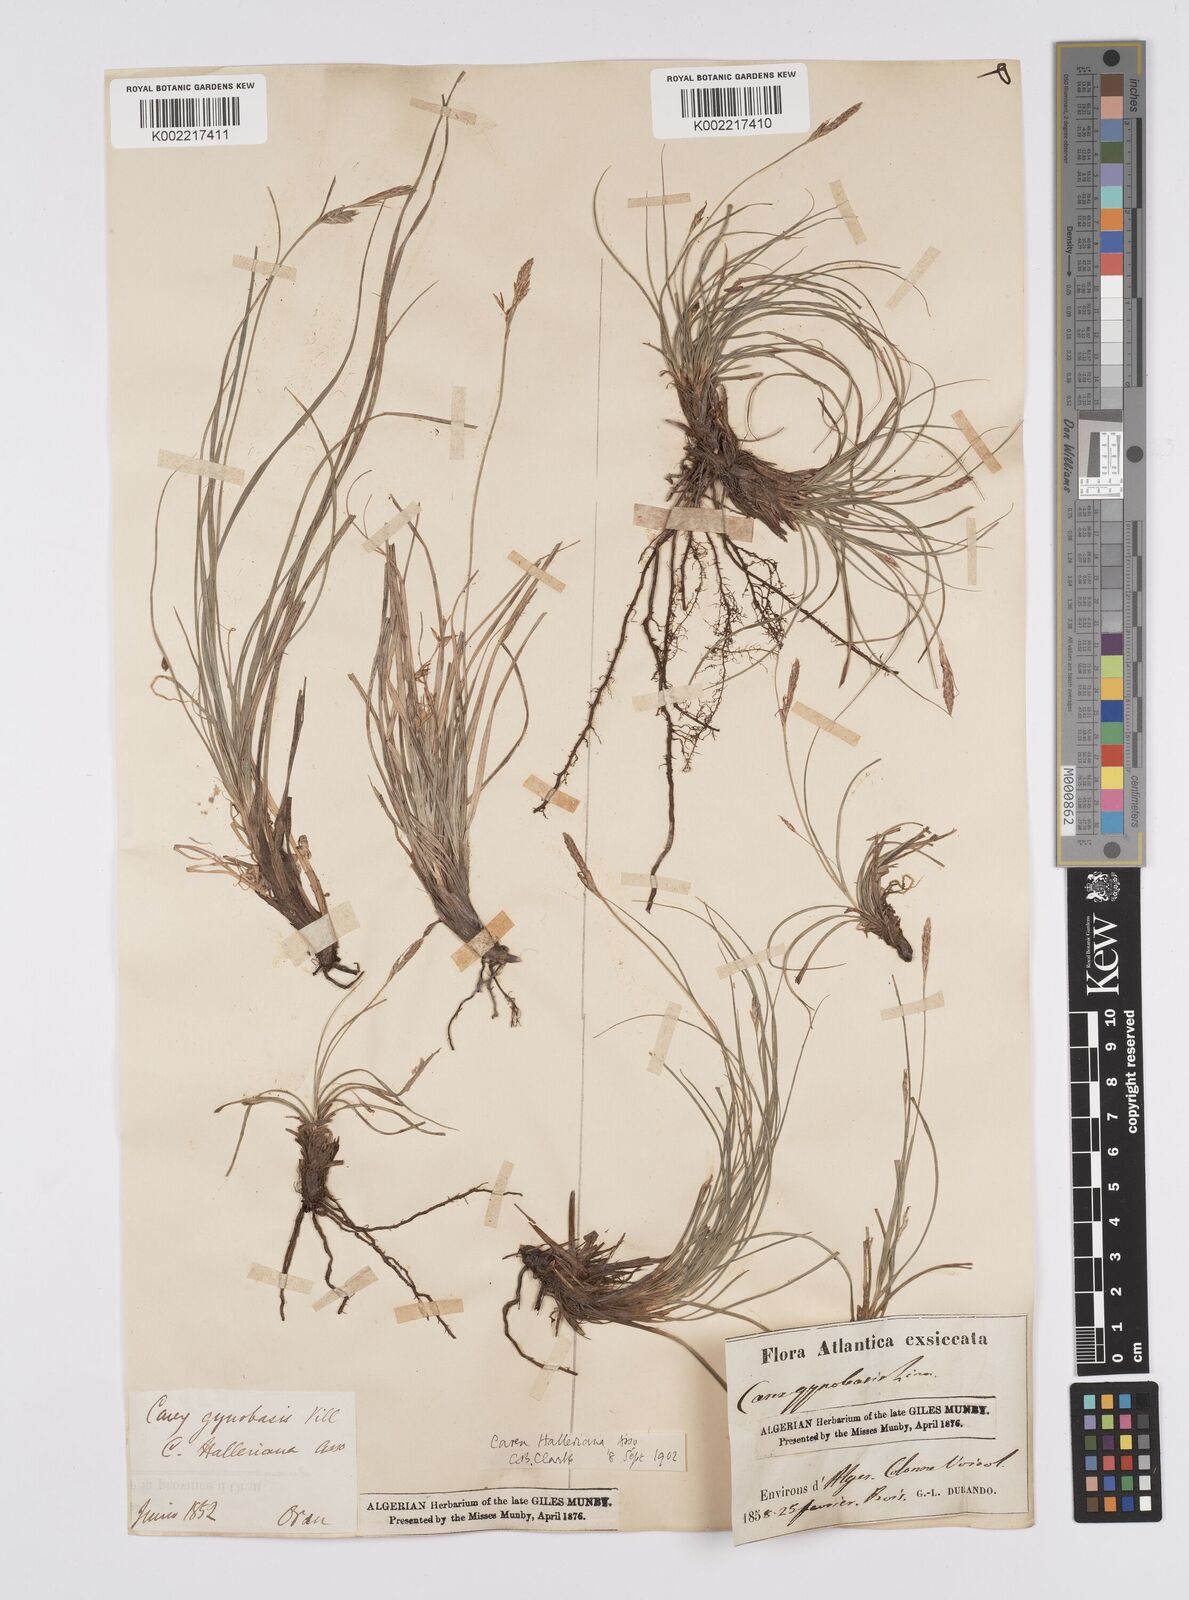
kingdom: Plantae
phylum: Tracheophyta
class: Liliopsida
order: Poales
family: Cyperaceae
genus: Carex
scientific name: Carex halleriana
